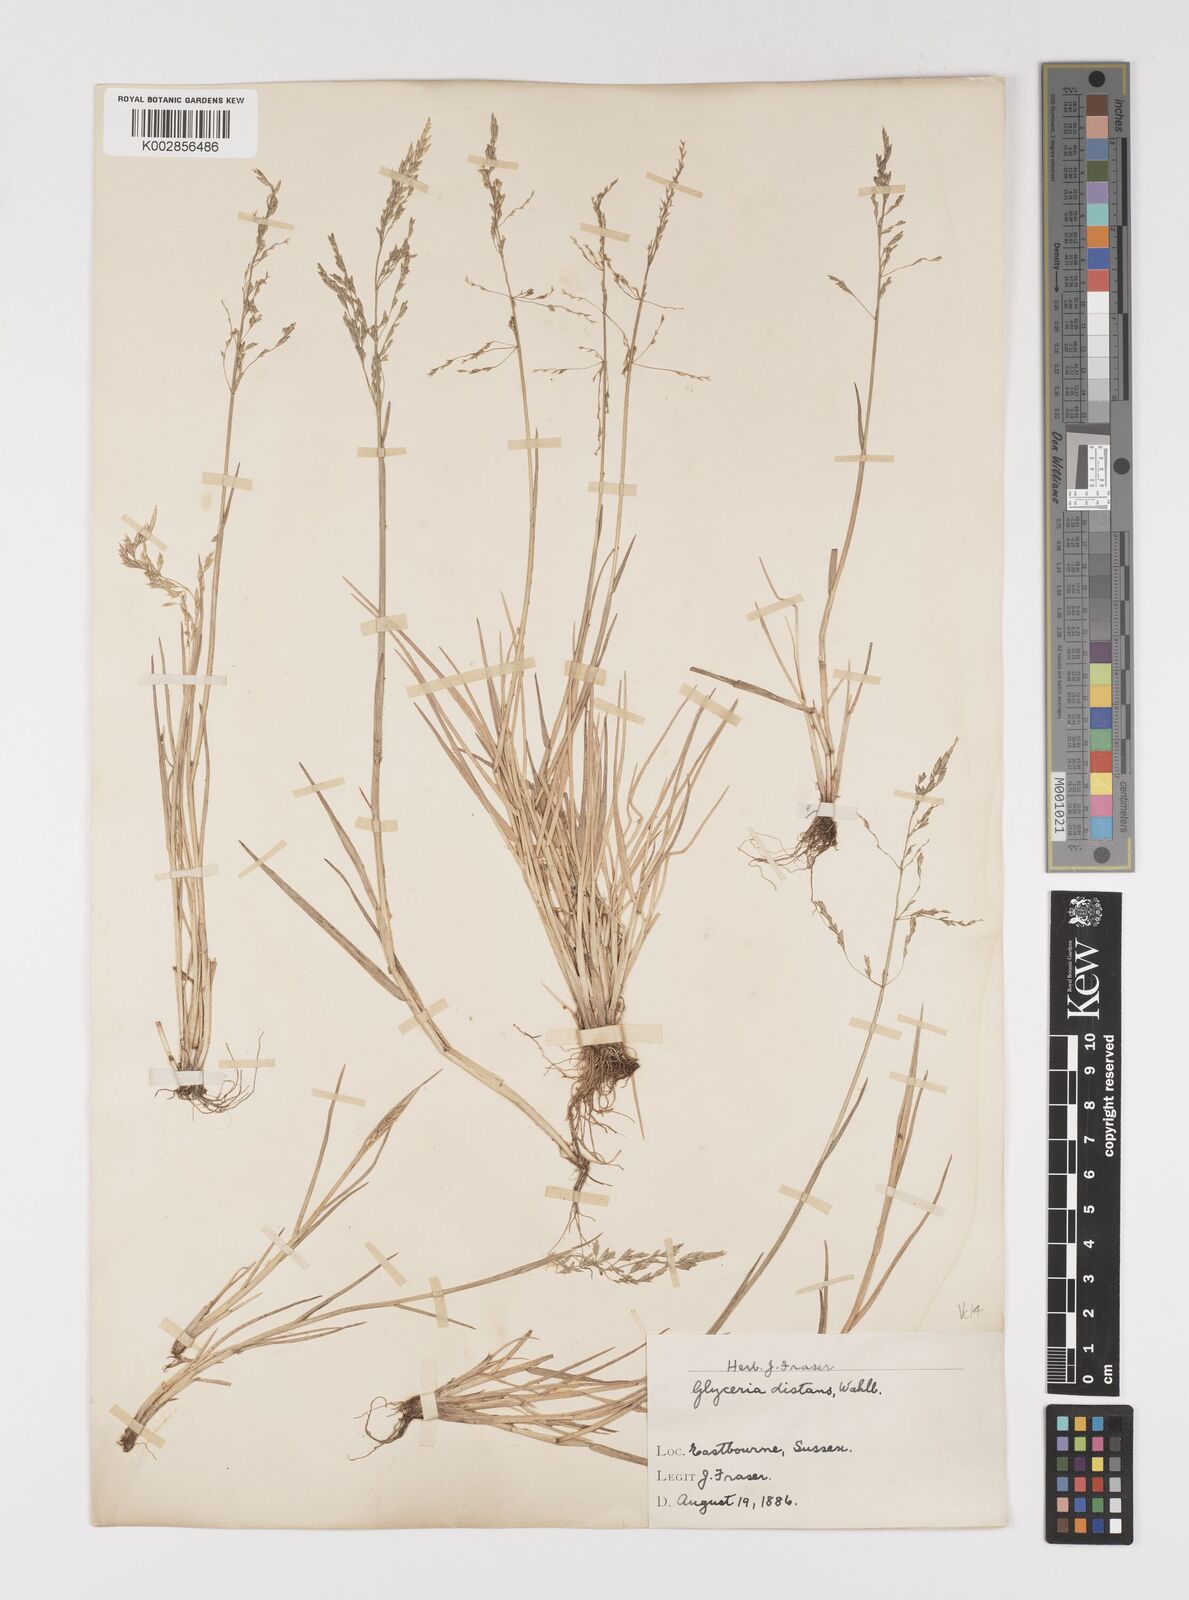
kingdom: Plantae
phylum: Tracheophyta
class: Liliopsida
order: Poales
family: Poaceae
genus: Puccinellia
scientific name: Puccinellia distans
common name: Weeping alkaligrass
